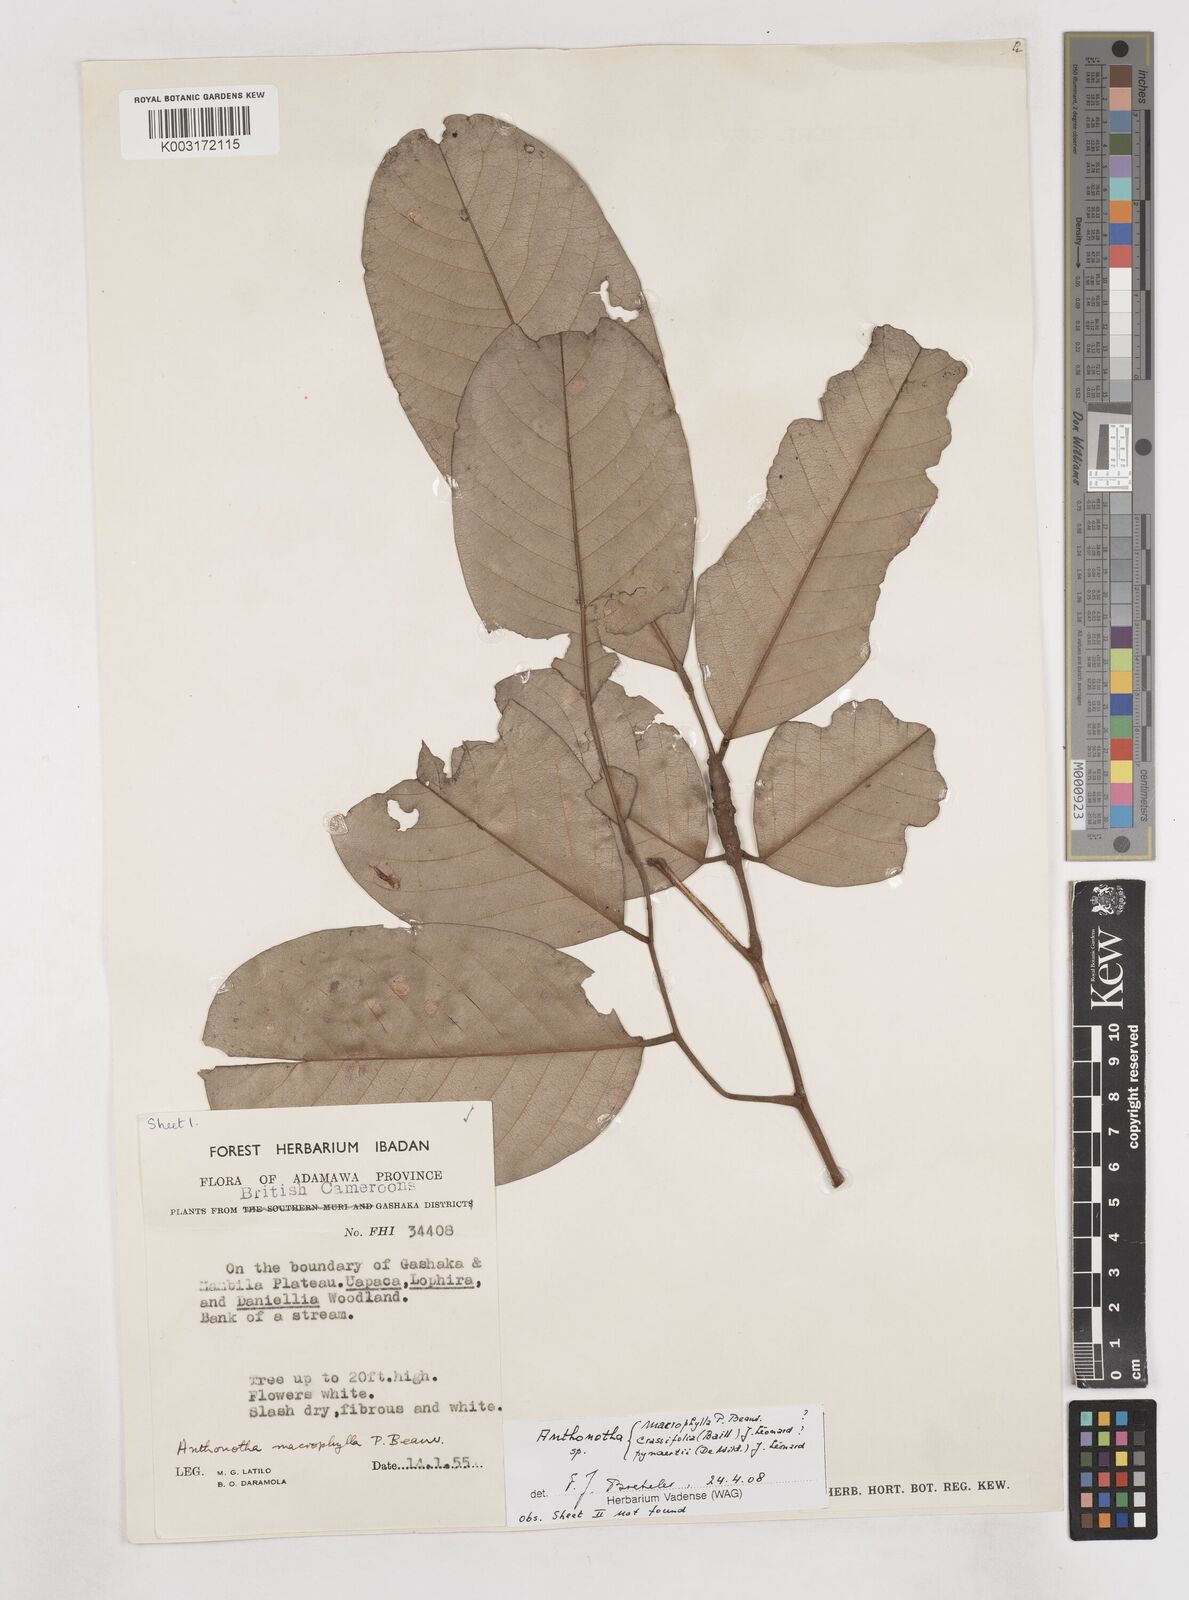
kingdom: Plantae
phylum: Tracheophyta
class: Magnoliopsida
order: Fabales
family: Fabaceae
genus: Anthonotha
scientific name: Anthonotha
